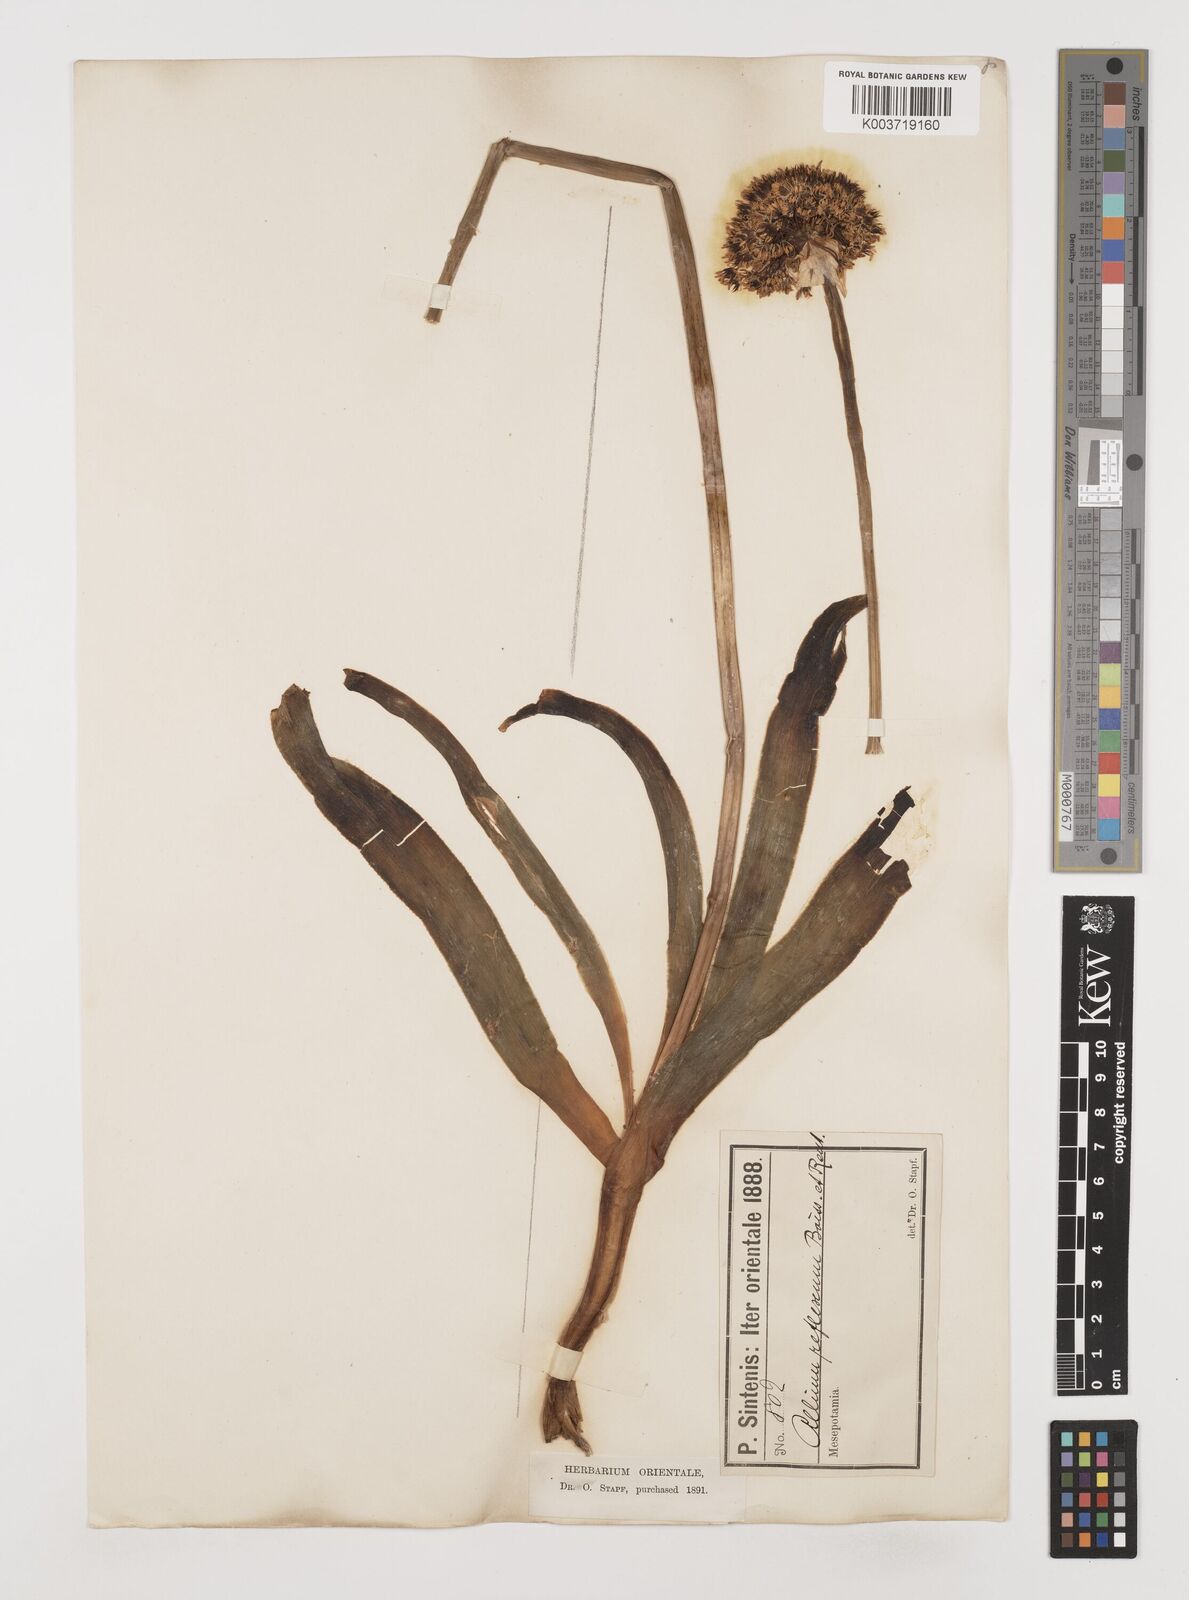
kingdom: Plantae
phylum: Tracheophyta
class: Liliopsida
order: Asparagales
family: Amaryllidaceae
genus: Allium
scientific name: Allium chrysantherum
